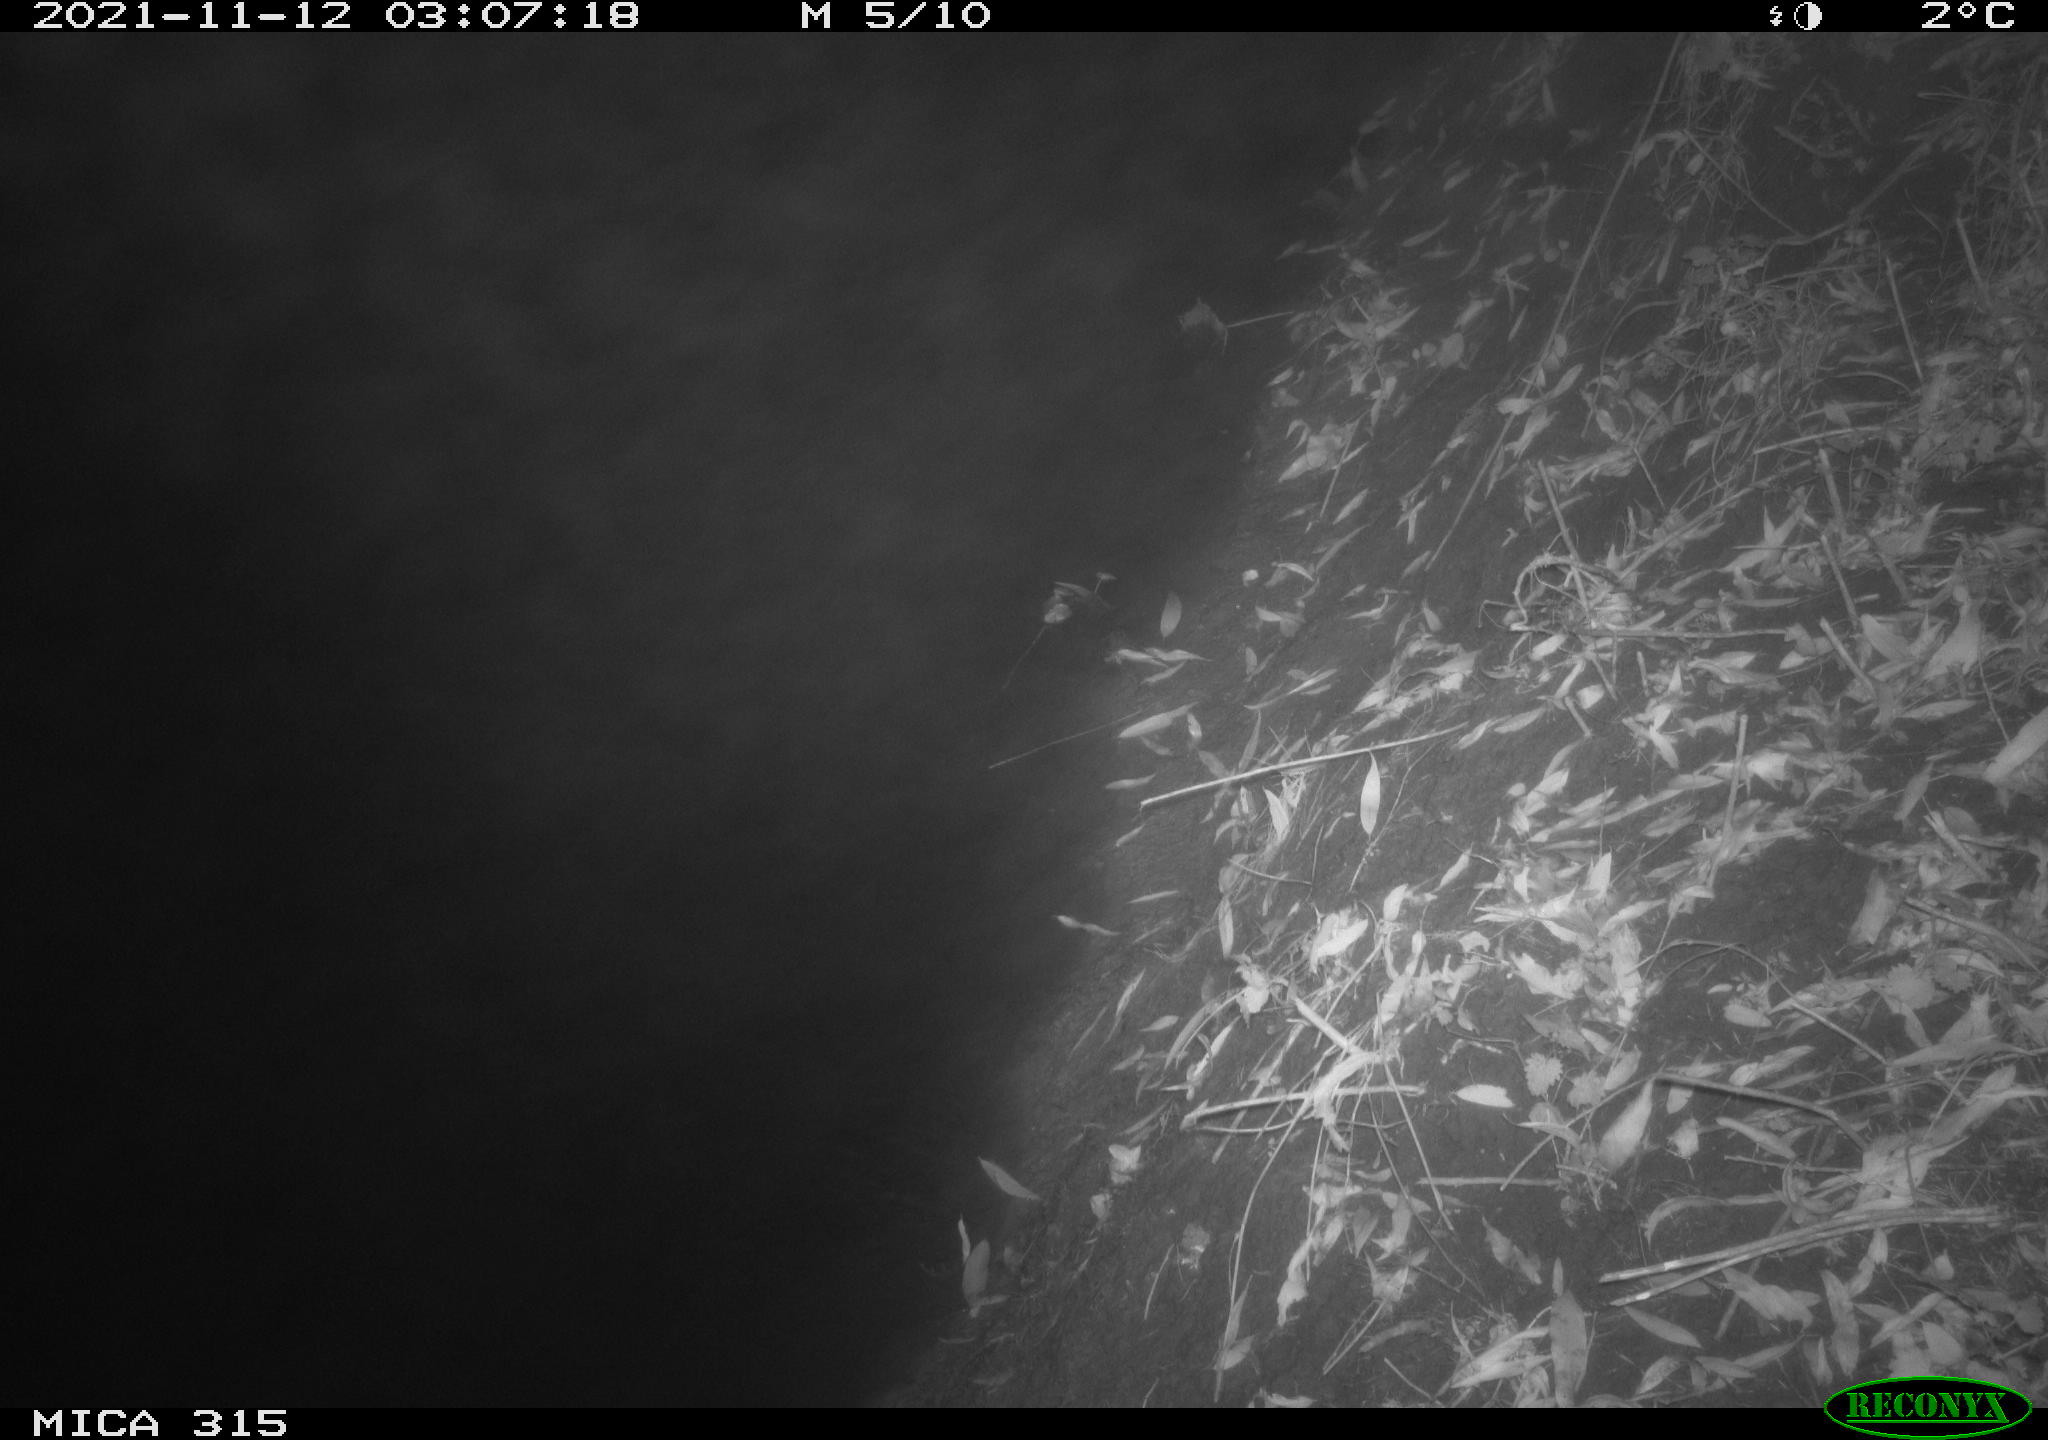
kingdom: Animalia
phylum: Chordata
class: Mammalia
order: Rodentia
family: Muridae
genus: Apodemus
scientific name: Apodemus sylvaticus
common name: Wood mouse
